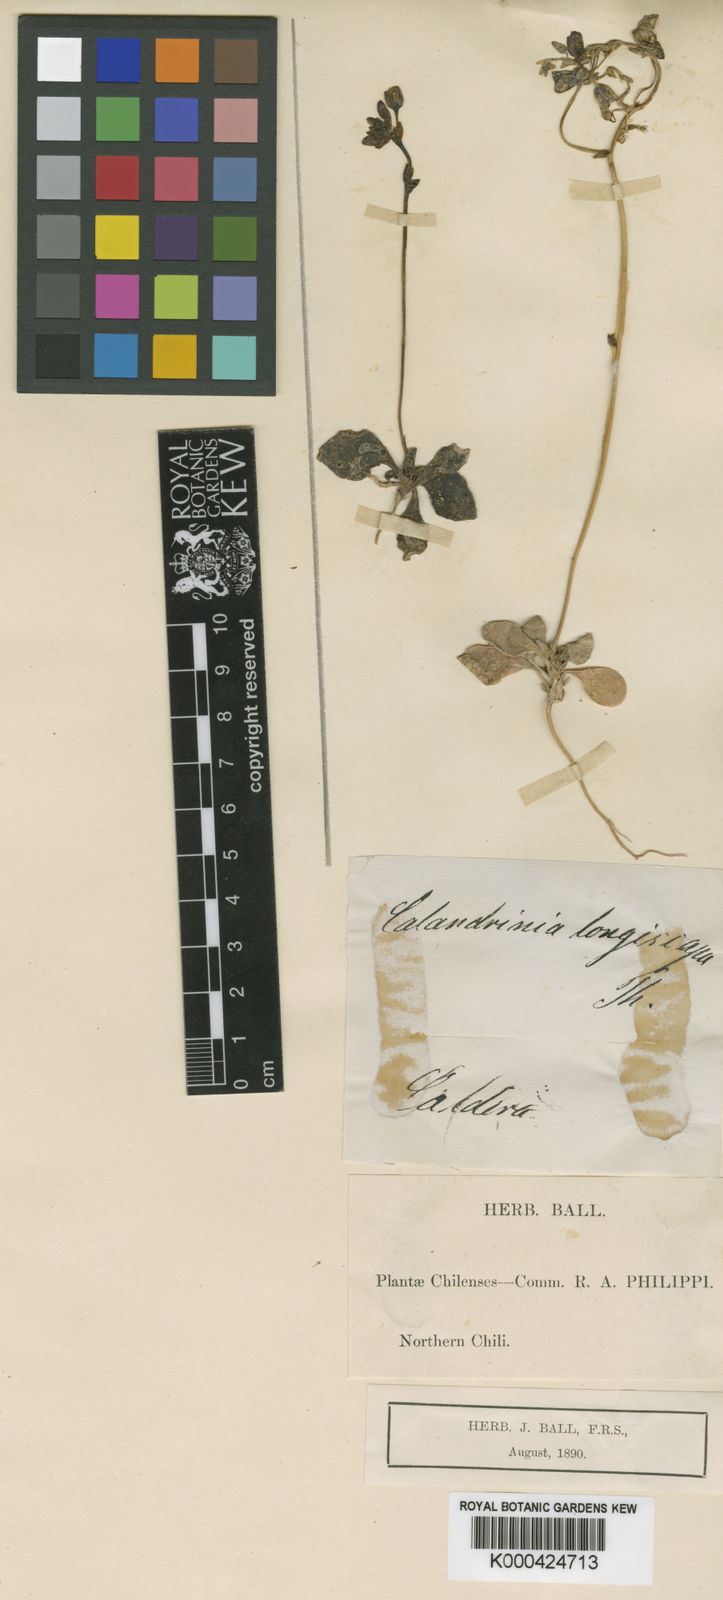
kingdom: Plantae
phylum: Tracheophyta
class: Magnoliopsida
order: Caryophyllales
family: Montiaceae
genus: Cistanthe
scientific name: Cistanthe
